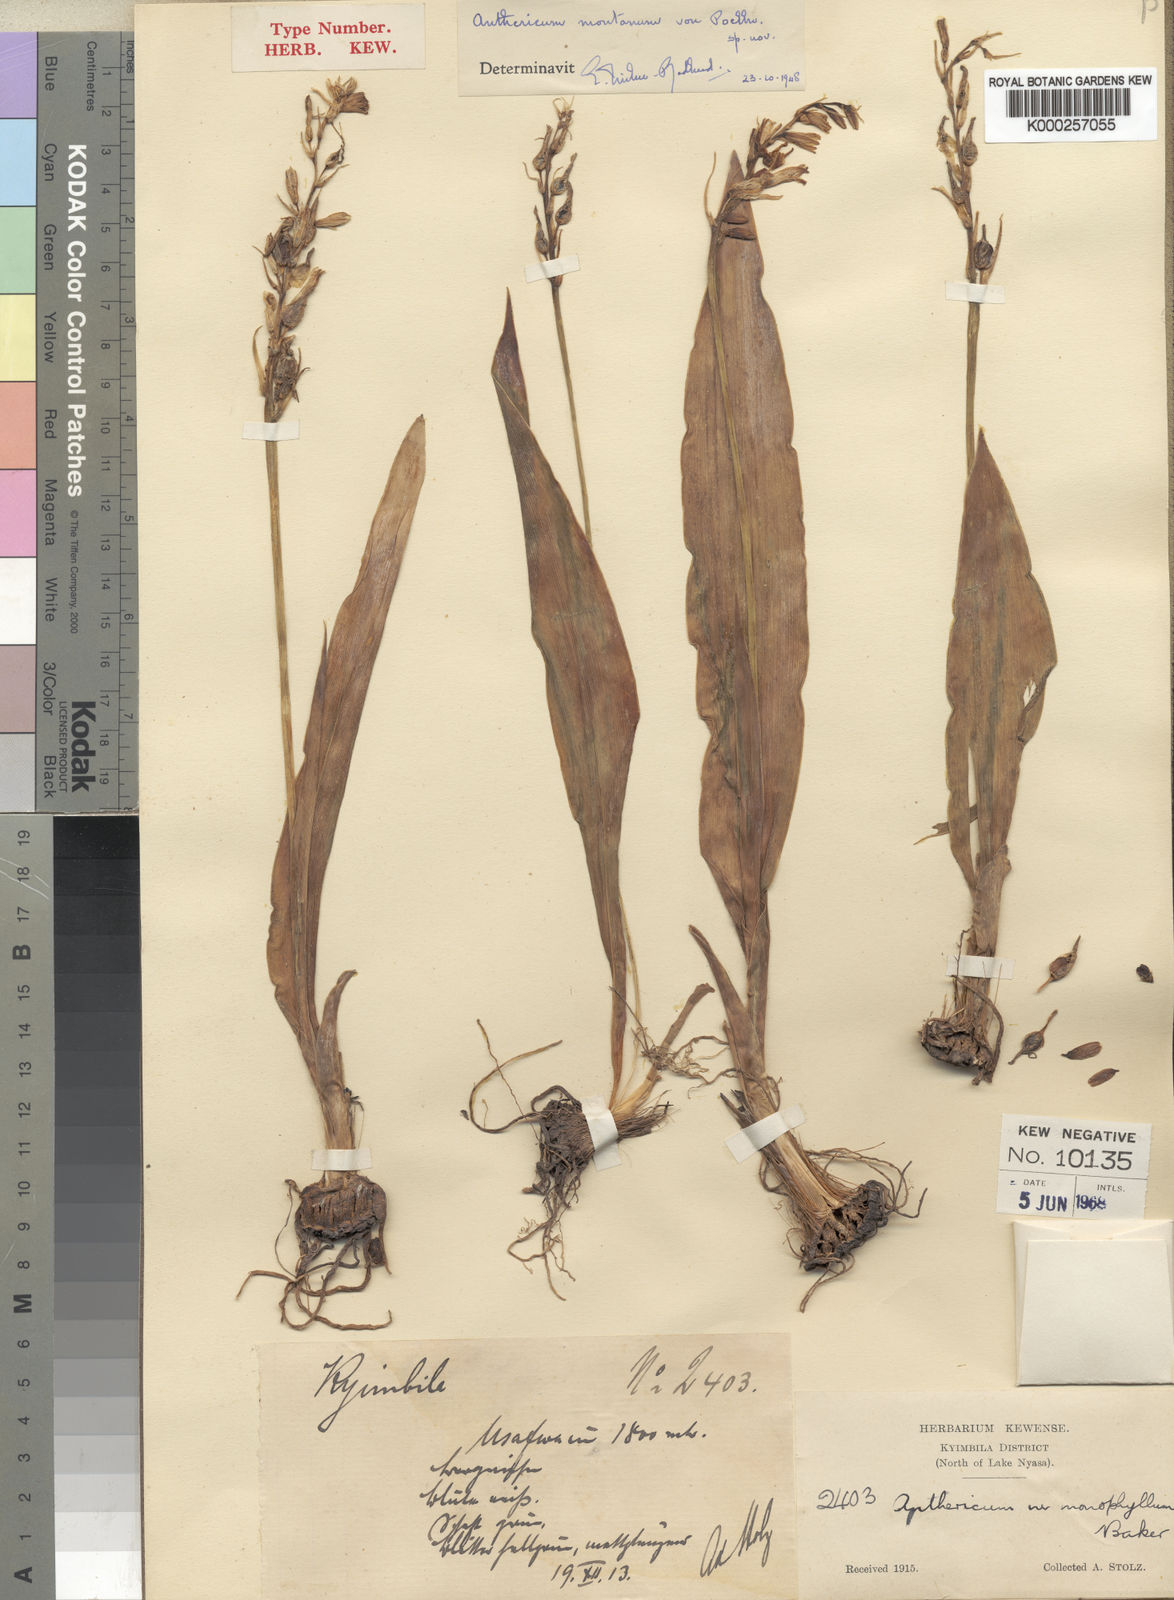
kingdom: Plantae
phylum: Tracheophyta
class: Liliopsida
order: Asparagales
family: Asparagaceae
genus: Chlorophytum
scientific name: Chlorophytum subpetiolatum
